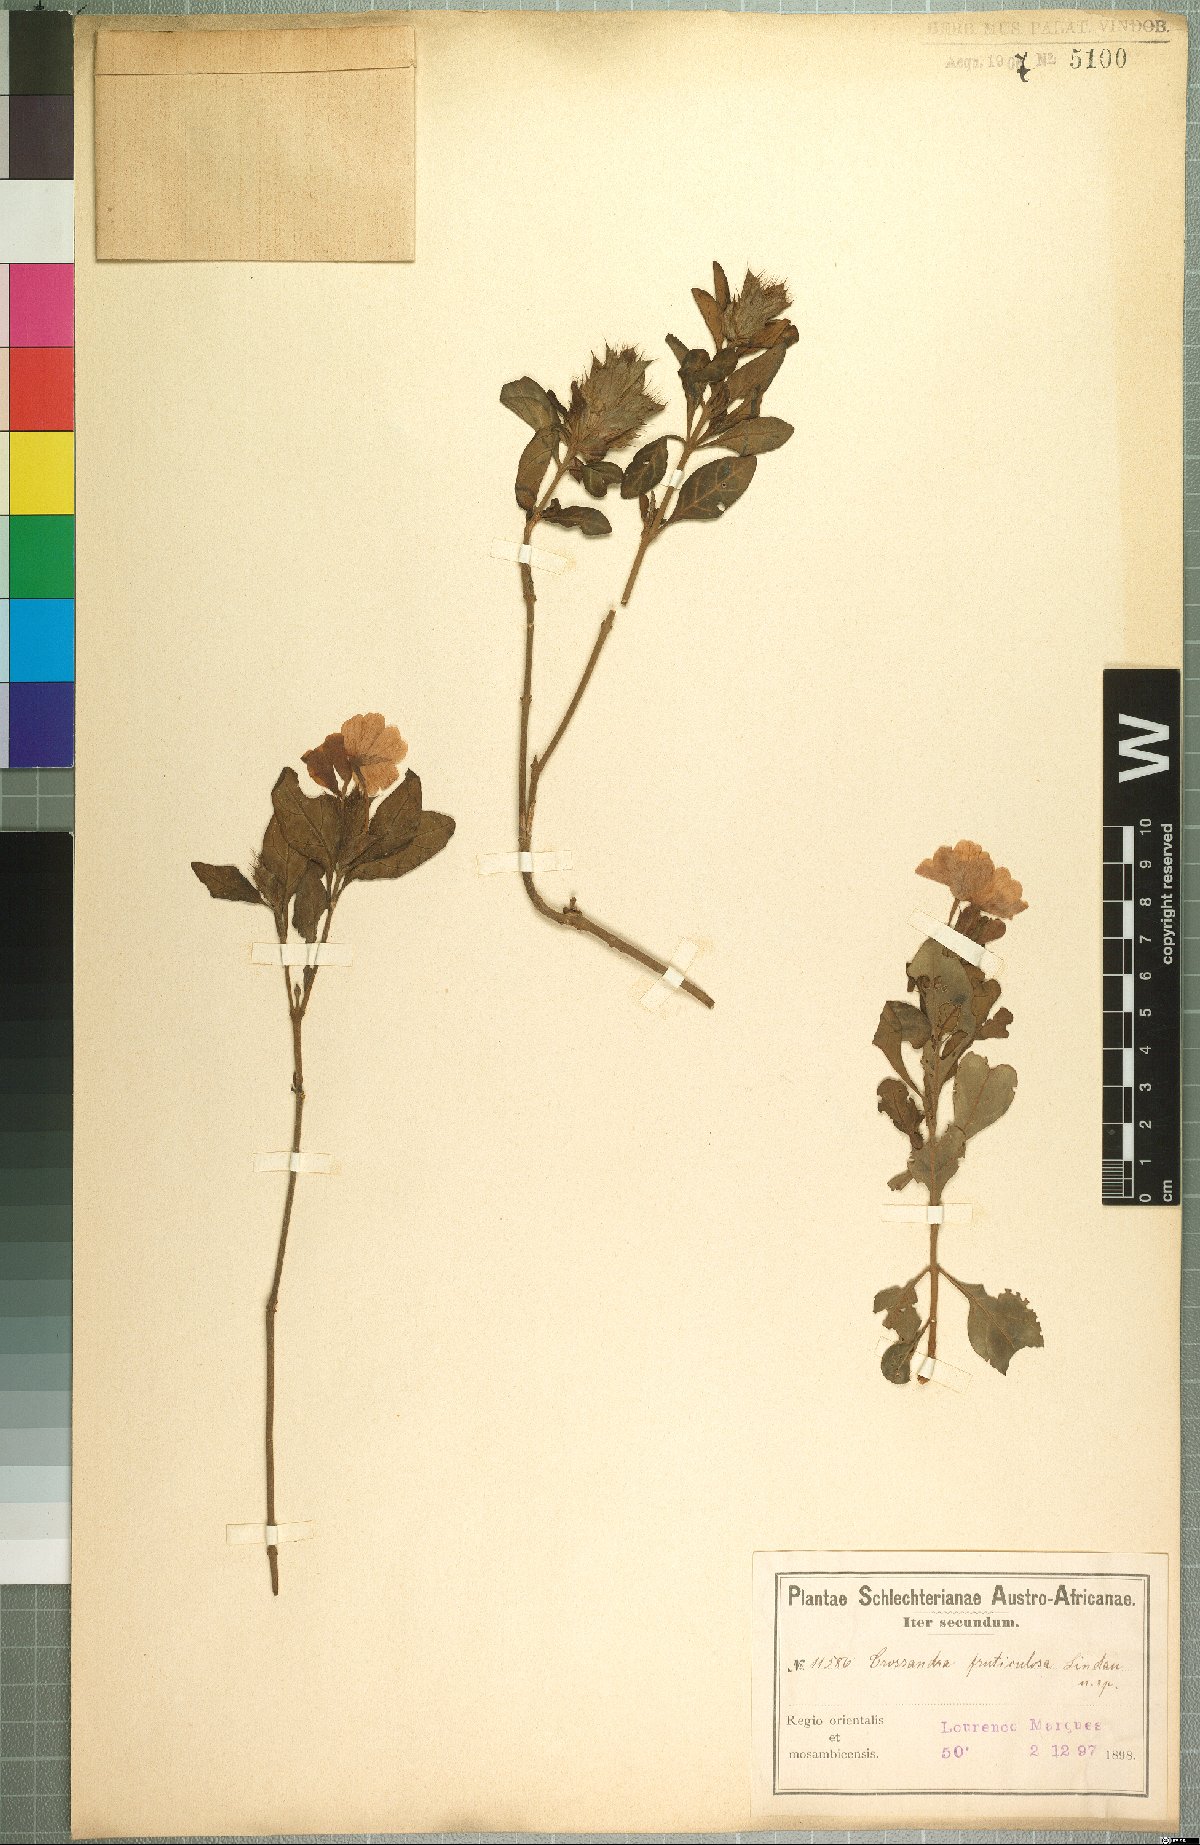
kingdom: Plantae
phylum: Tracheophyta
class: Magnoliopsida
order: Lamiales
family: Acanthaceae
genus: Crossandra
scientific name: Crossandra fruticulosa
